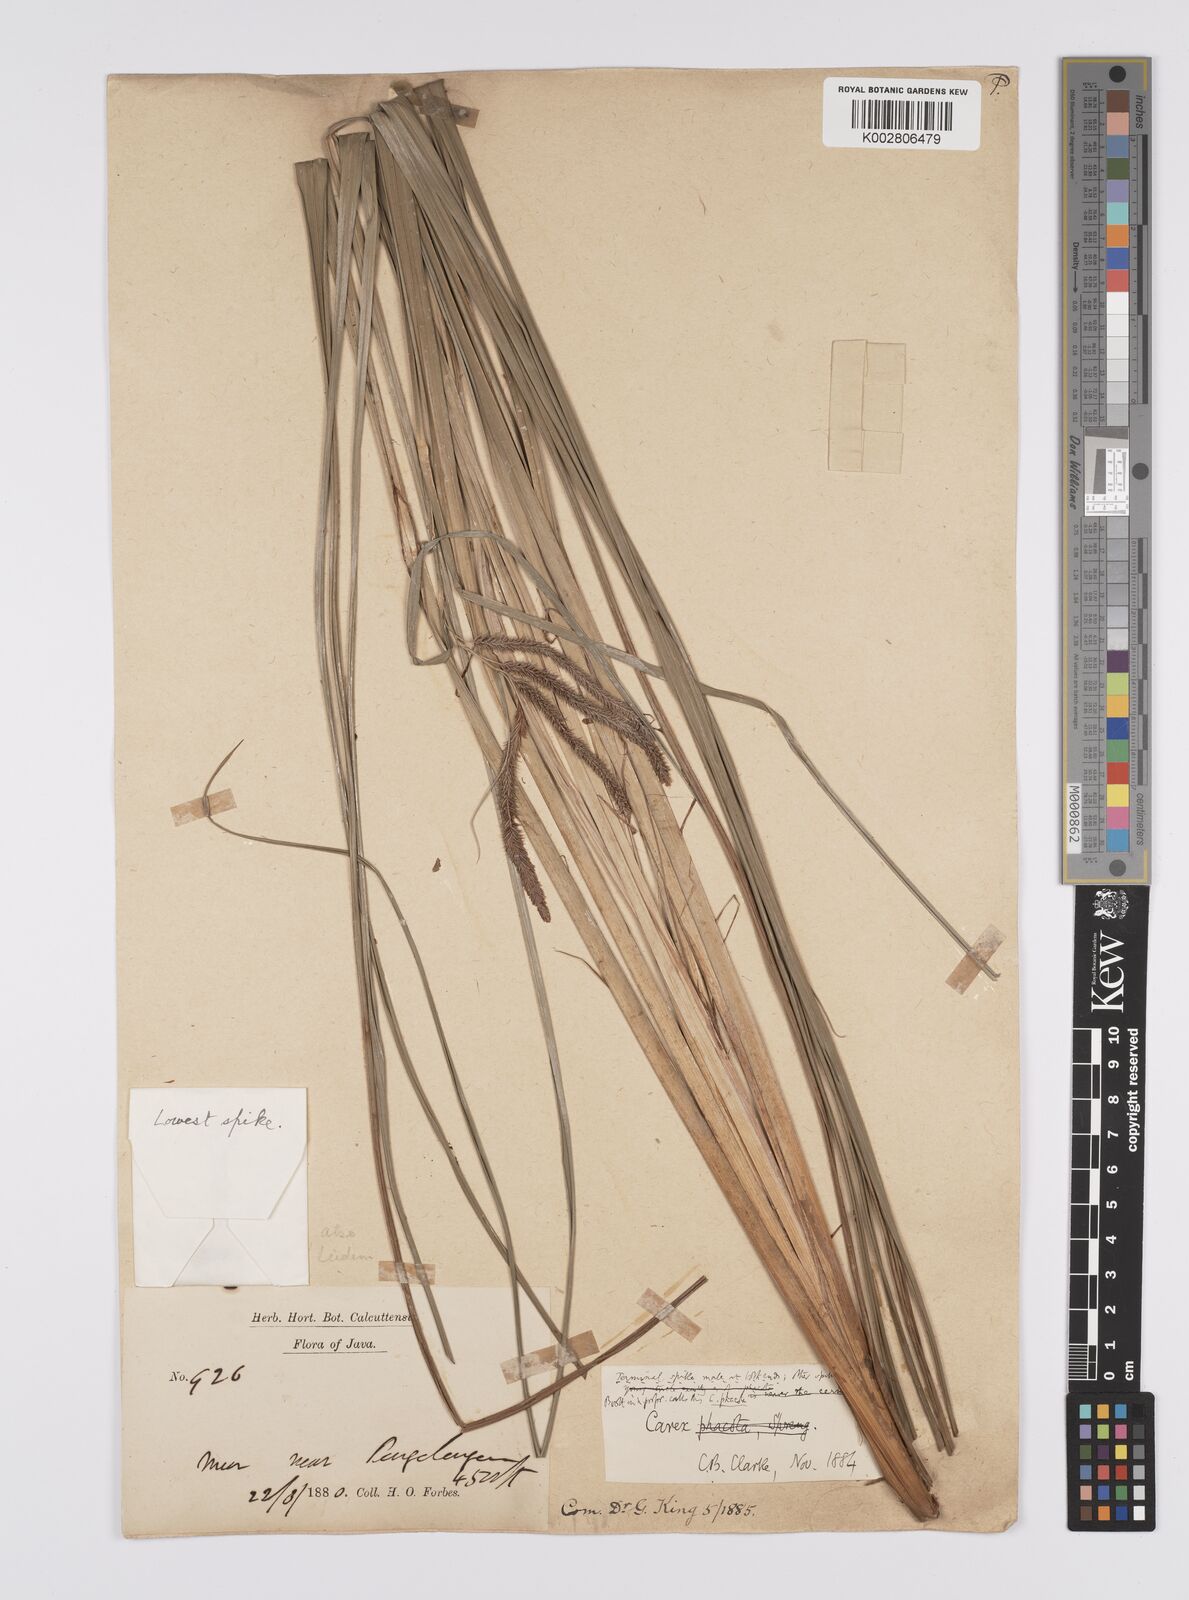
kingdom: Plantae
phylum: Tracheophyta
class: Liliopsida
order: Poales
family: Cyperaceae
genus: Carex
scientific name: Carex phacota
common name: Lakeshore sedge
